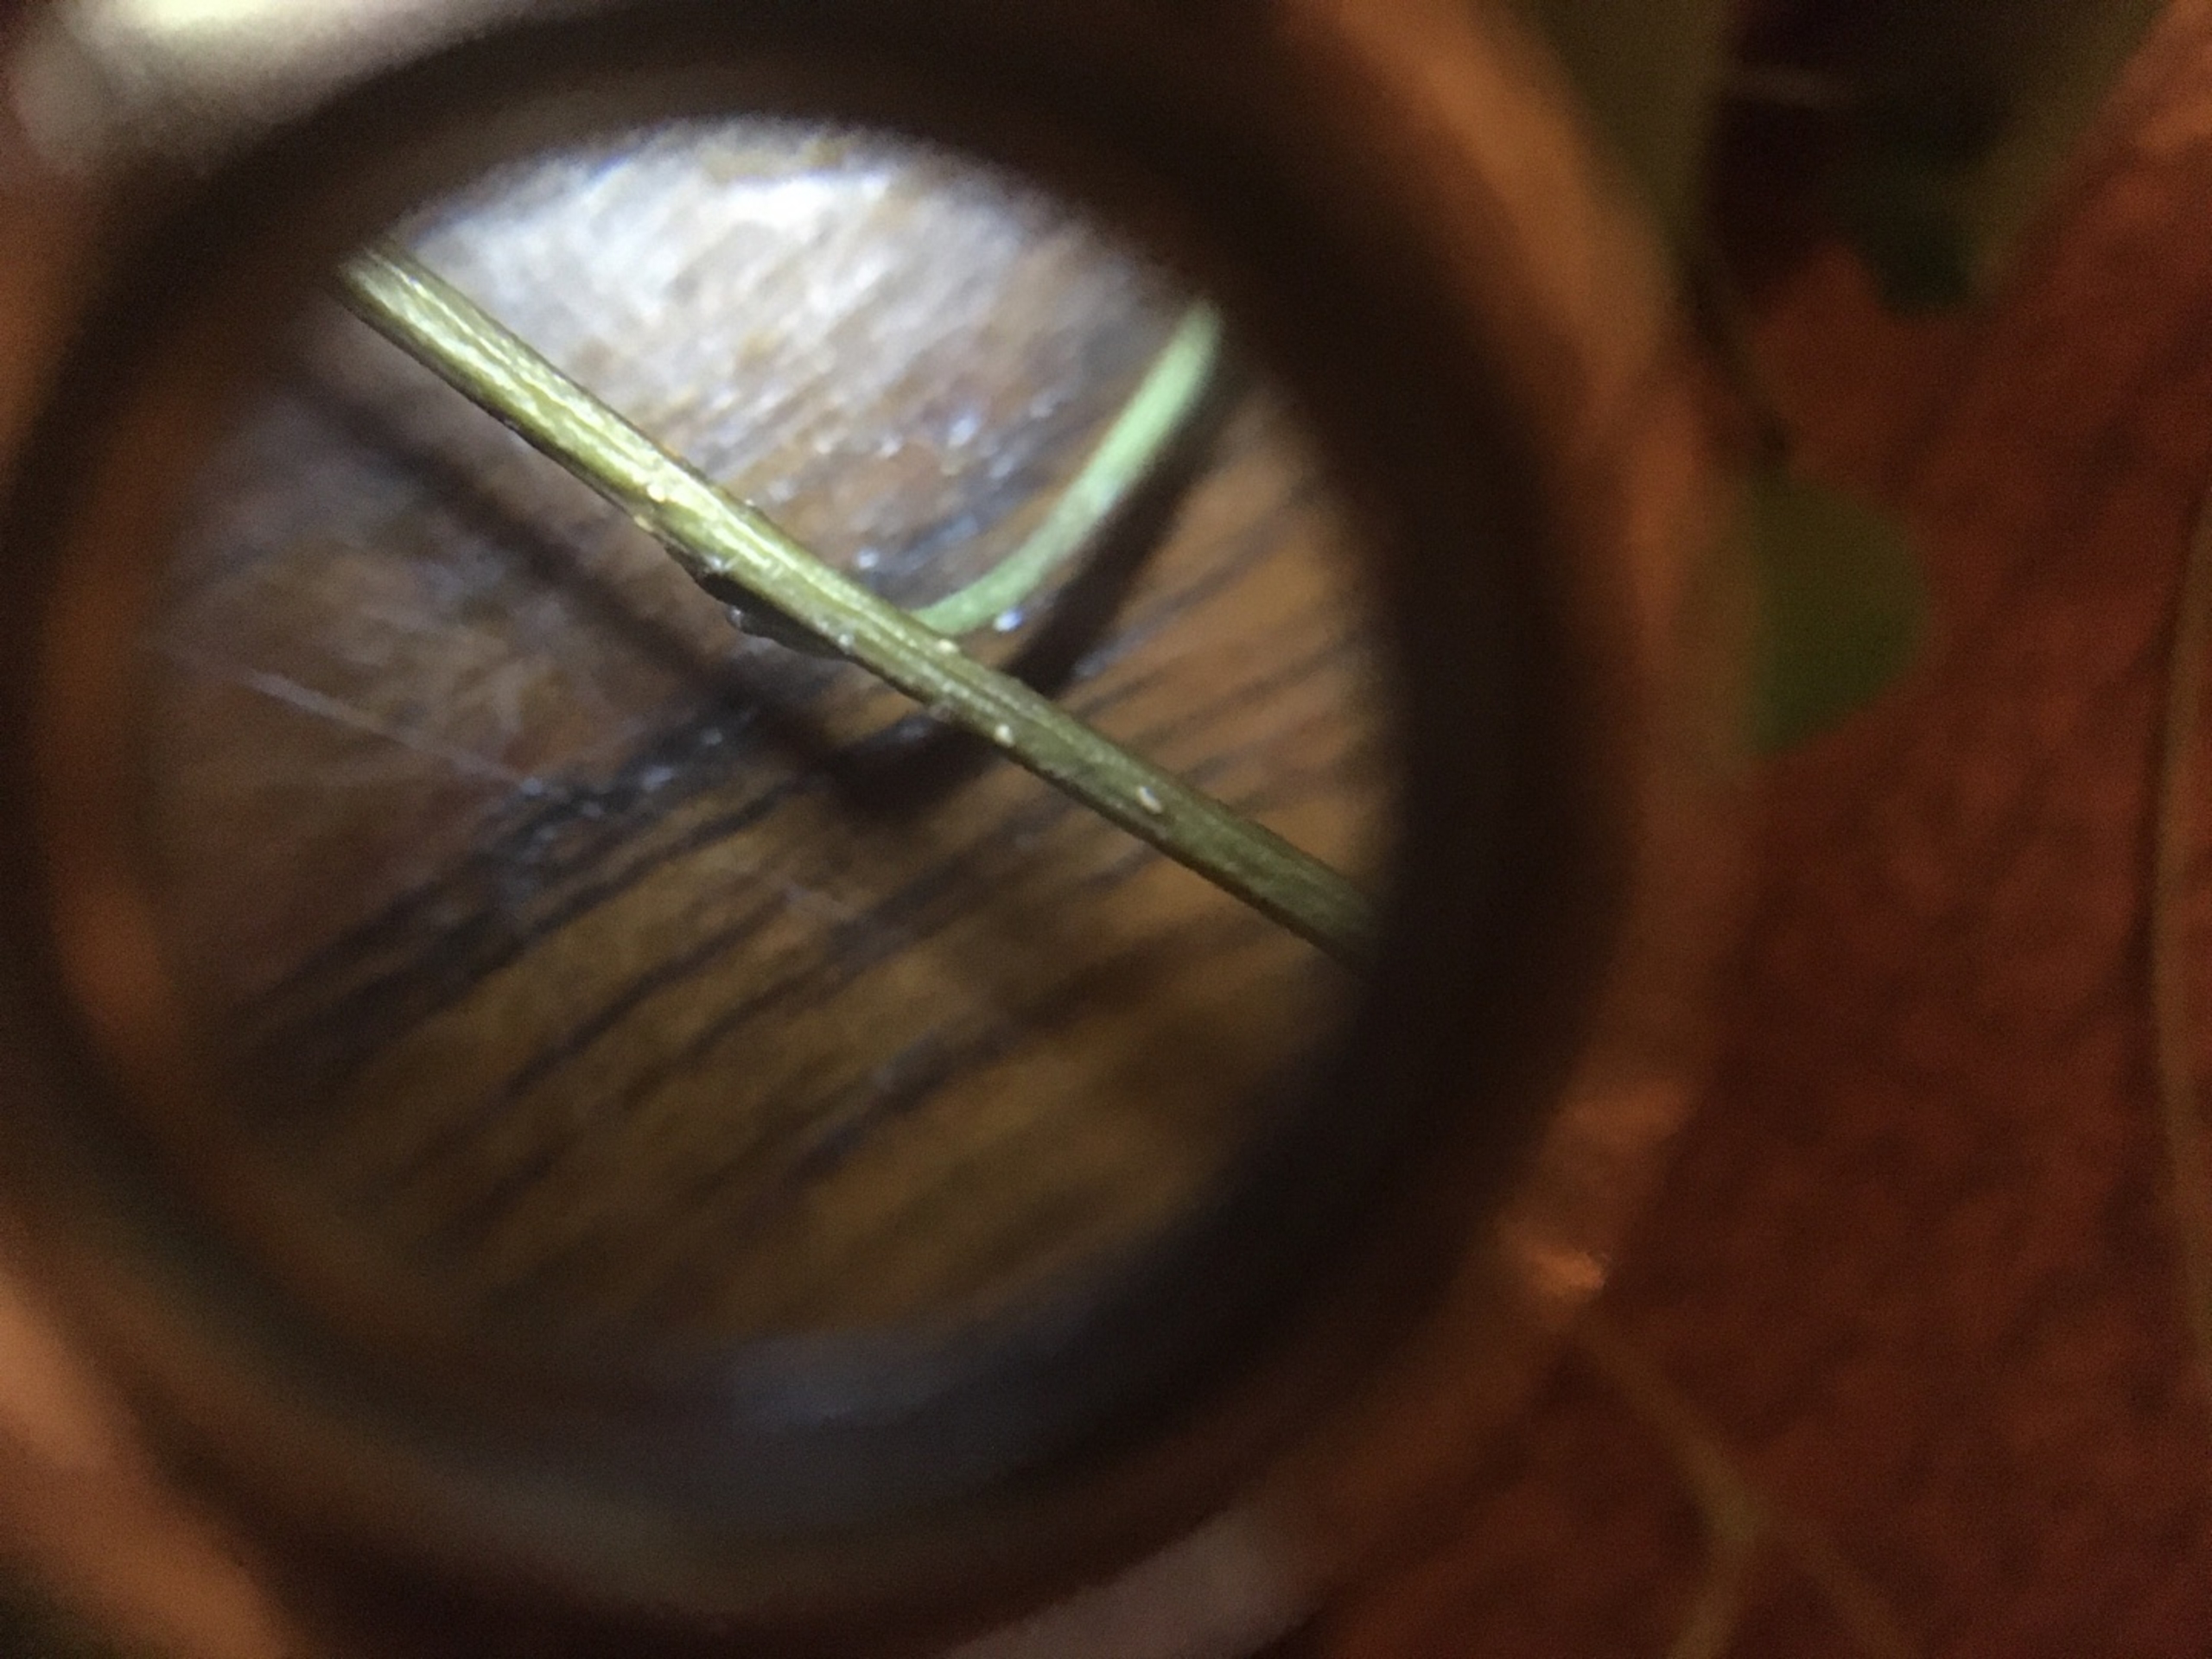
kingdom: Plantae
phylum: Tracheophyta
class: Magnoliopsida
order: Fagales
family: Betulaceae
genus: Betula
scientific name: Betula pendula
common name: Vorte-birk
